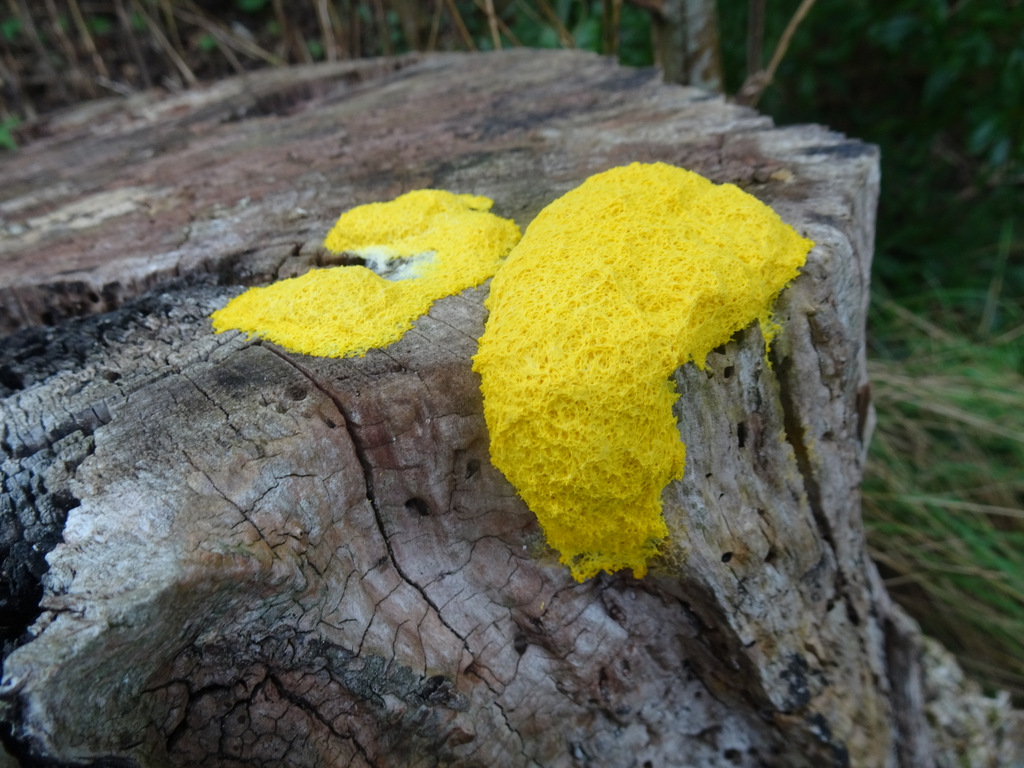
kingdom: Protozoa
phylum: Mycetozoa
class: Myxomycetes
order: Physarales
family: Physaraceae
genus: Fuligo
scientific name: Fuligo septica
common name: gul troldsmør
